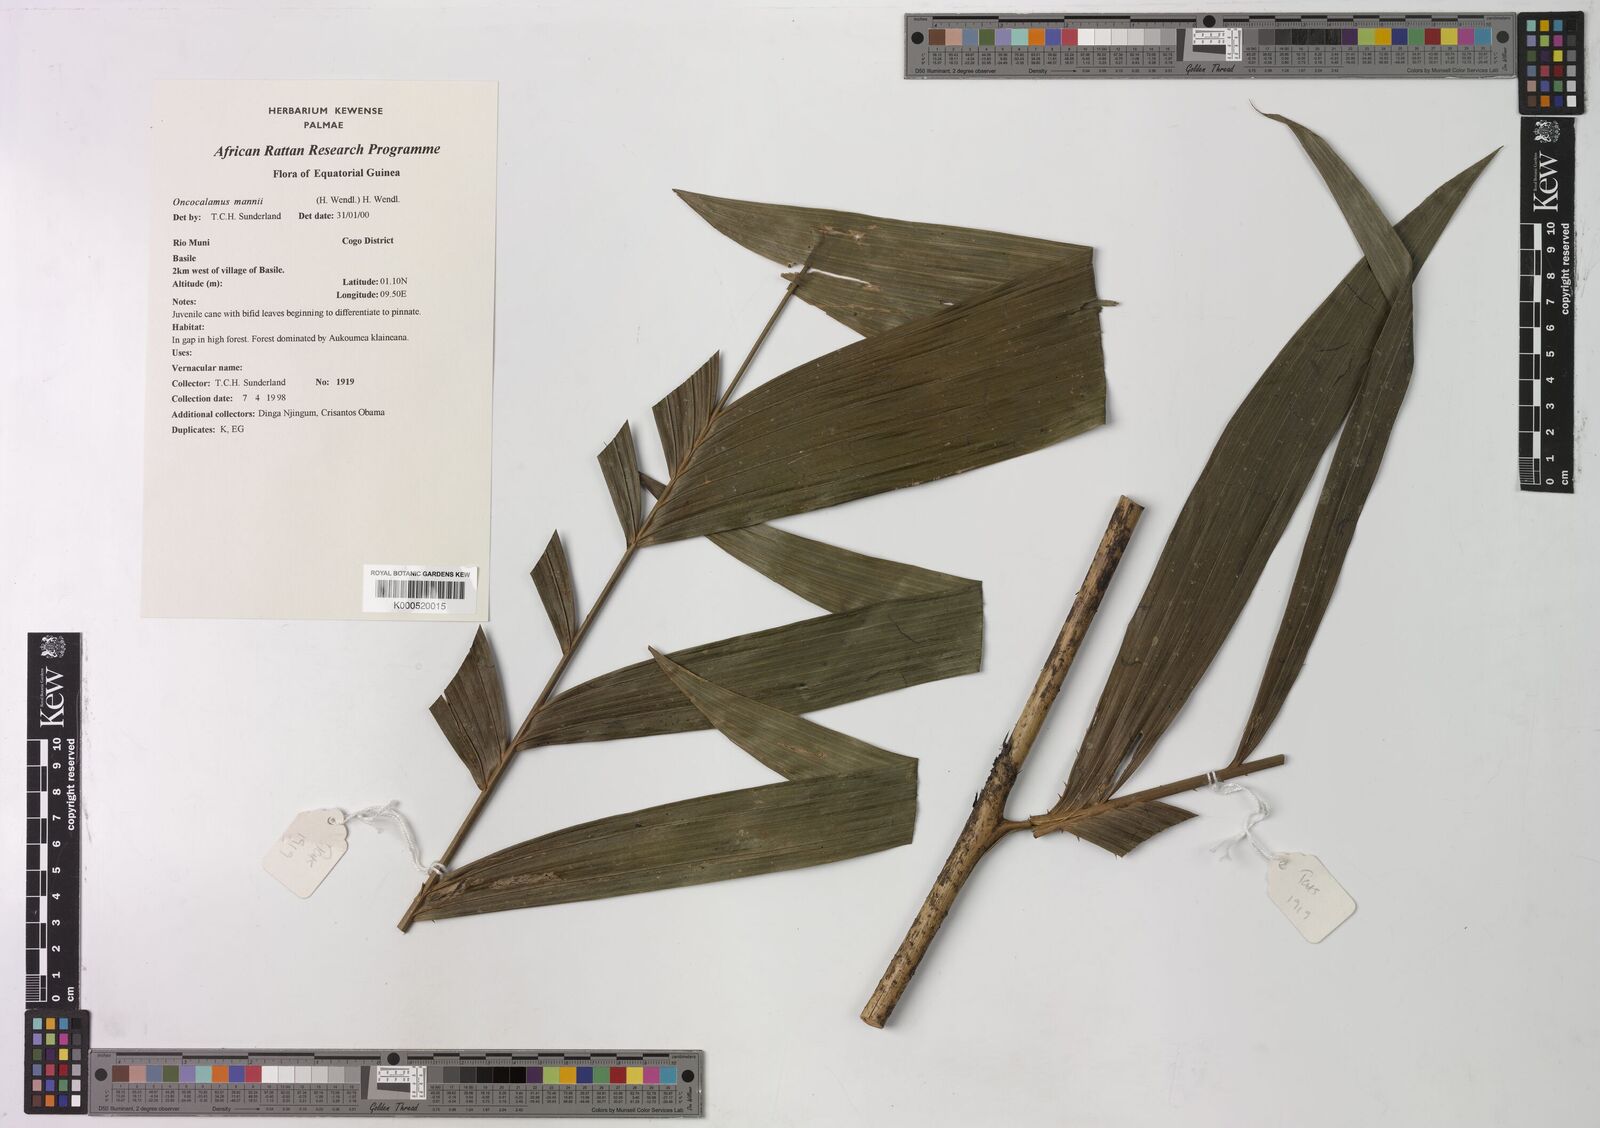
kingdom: Plantae
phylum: Tracheophyta
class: Liliopsida
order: Arecales
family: Arecaceae
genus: Oncocalamus
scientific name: Oncocalamus mannii
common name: Rattan
